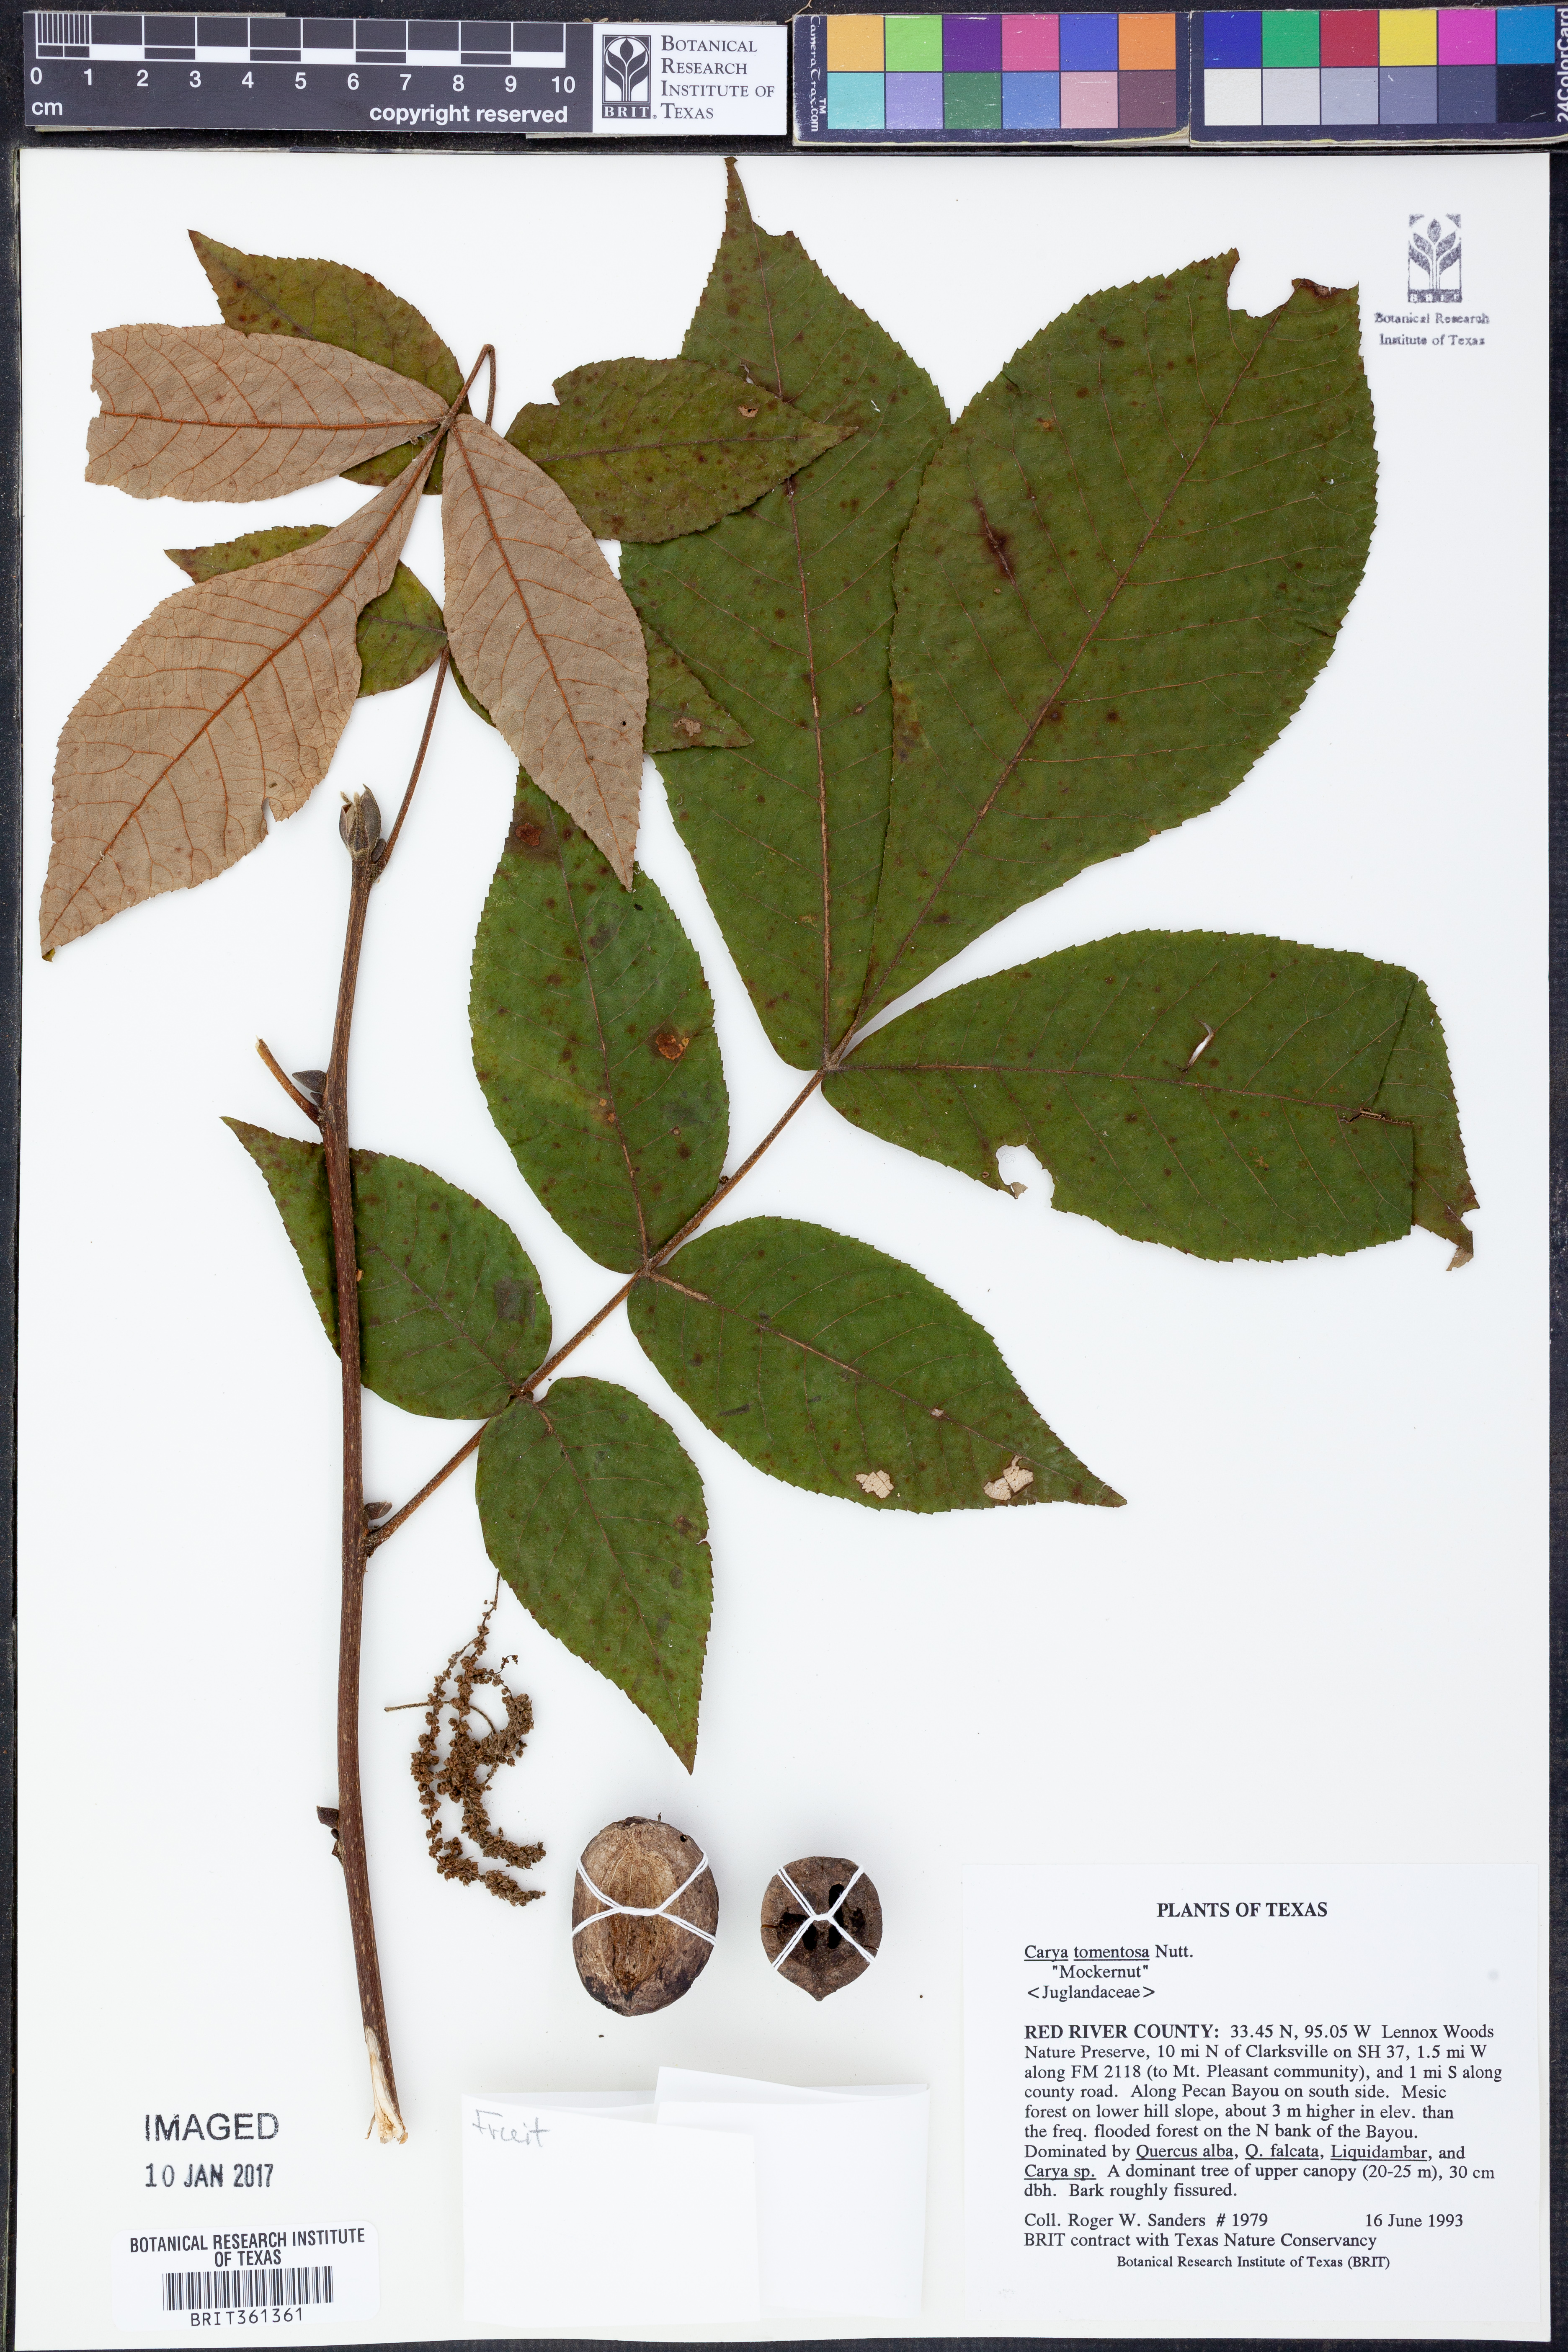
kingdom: Plantae
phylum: Tracheophyta
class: Magnoliopsida
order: Fagales
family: Juglandaceae
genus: Carya
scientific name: Carya alba
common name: Mockernut hickory
